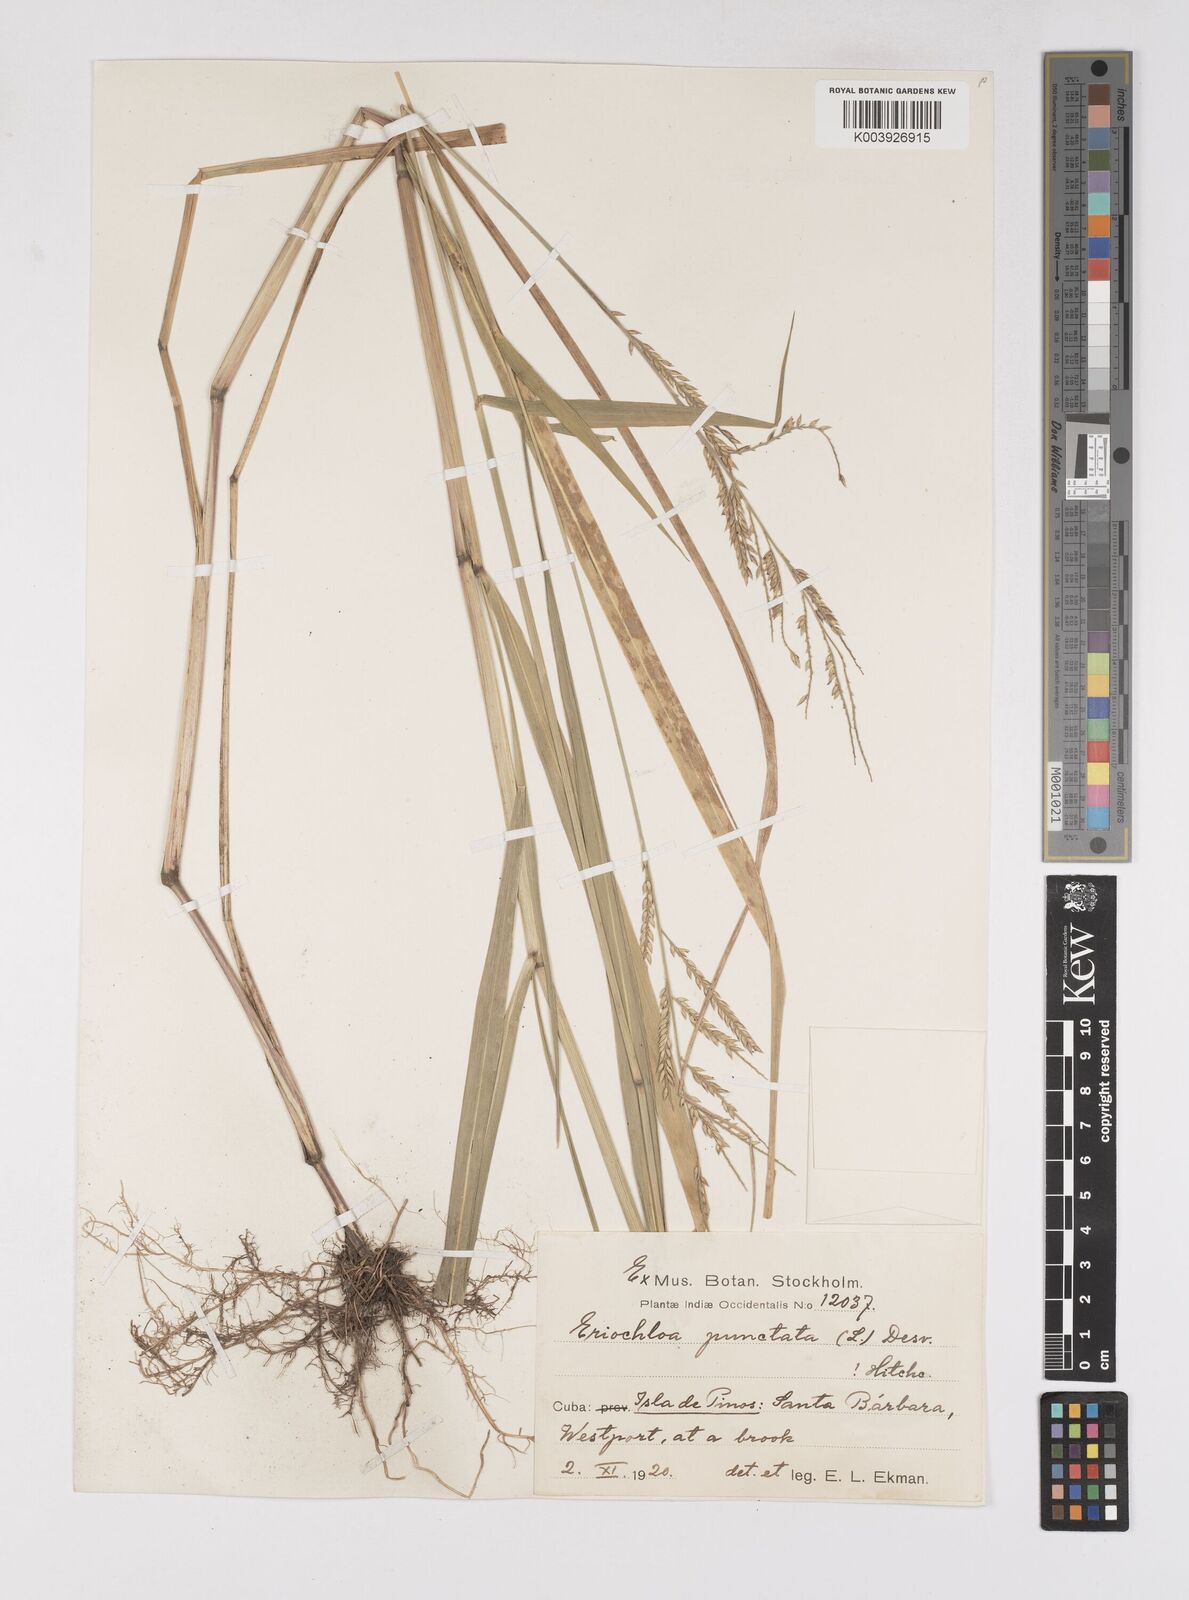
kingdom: Plantae
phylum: Tracheophyta
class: Liliopsida
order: Poales
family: Poaceae
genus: Eriochloa
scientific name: Eriochloa punctata
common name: Louisiana cupgrass
